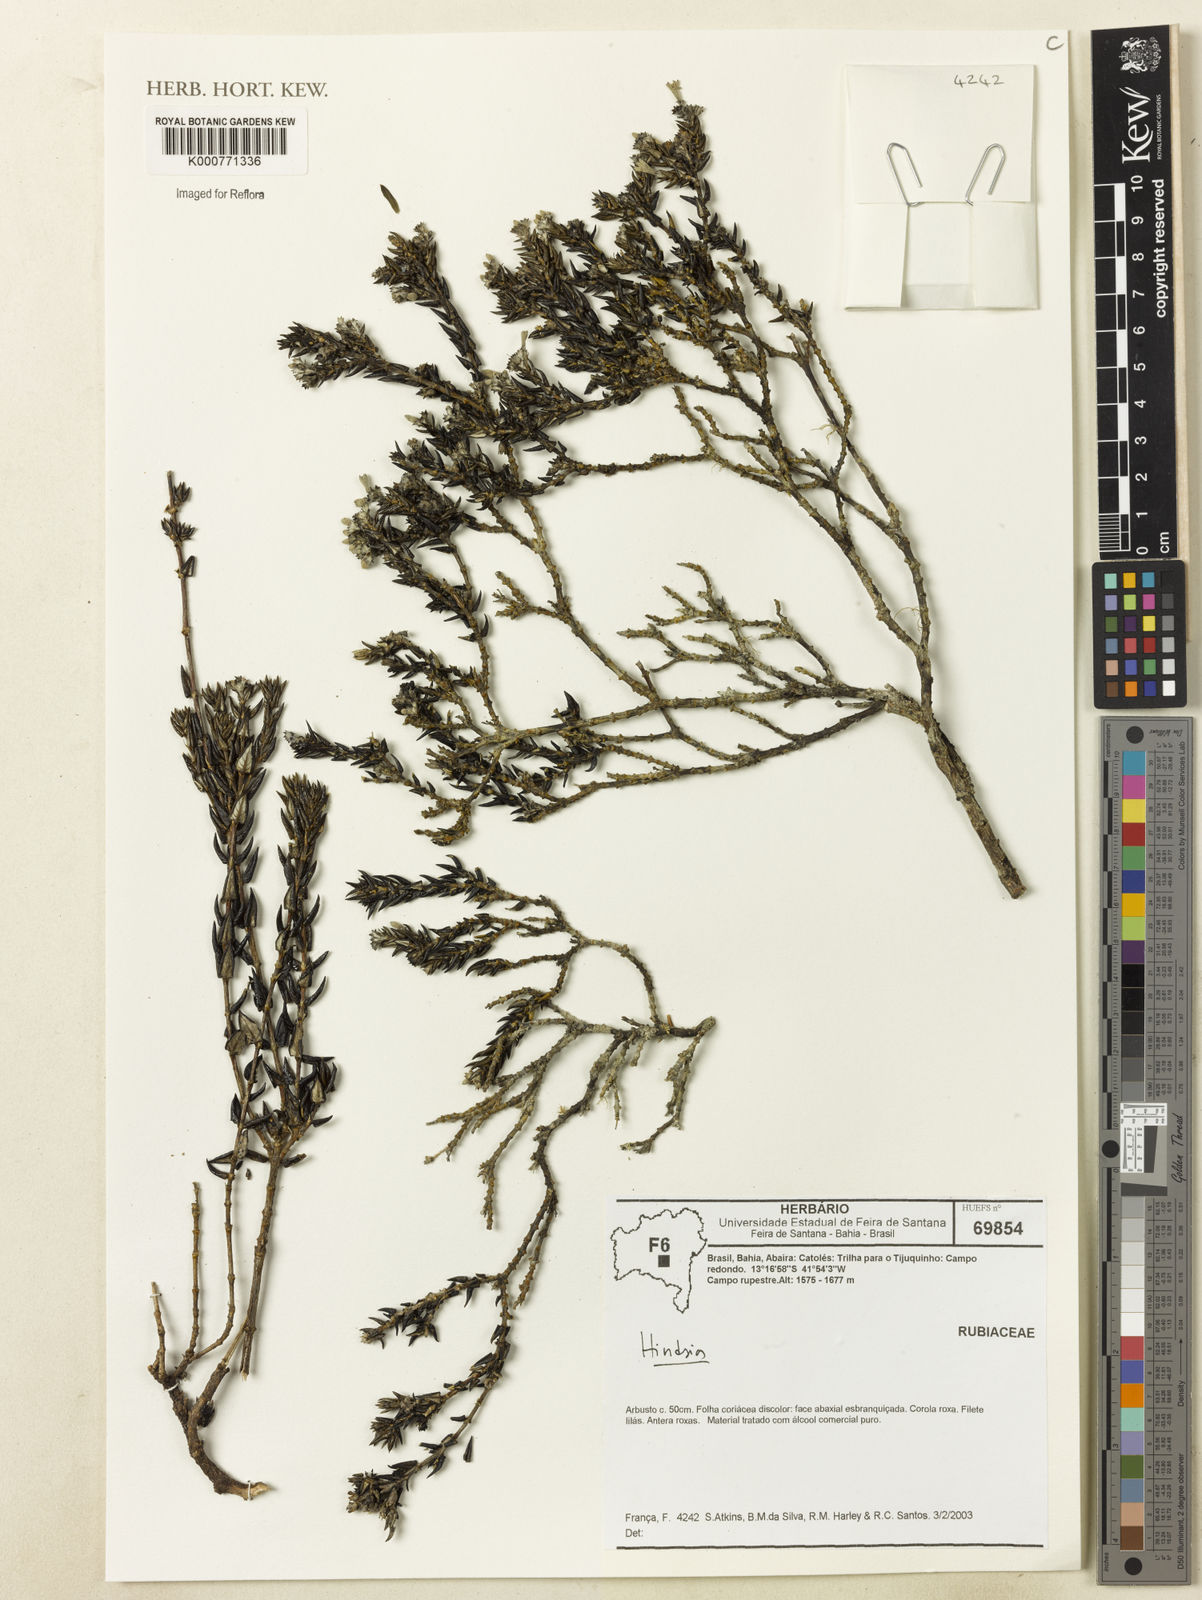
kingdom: Plantae
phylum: Tracheophyta
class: Magnoliopsida
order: Gentianales
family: Rubiaceae
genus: Hindsia
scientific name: Hindsia
